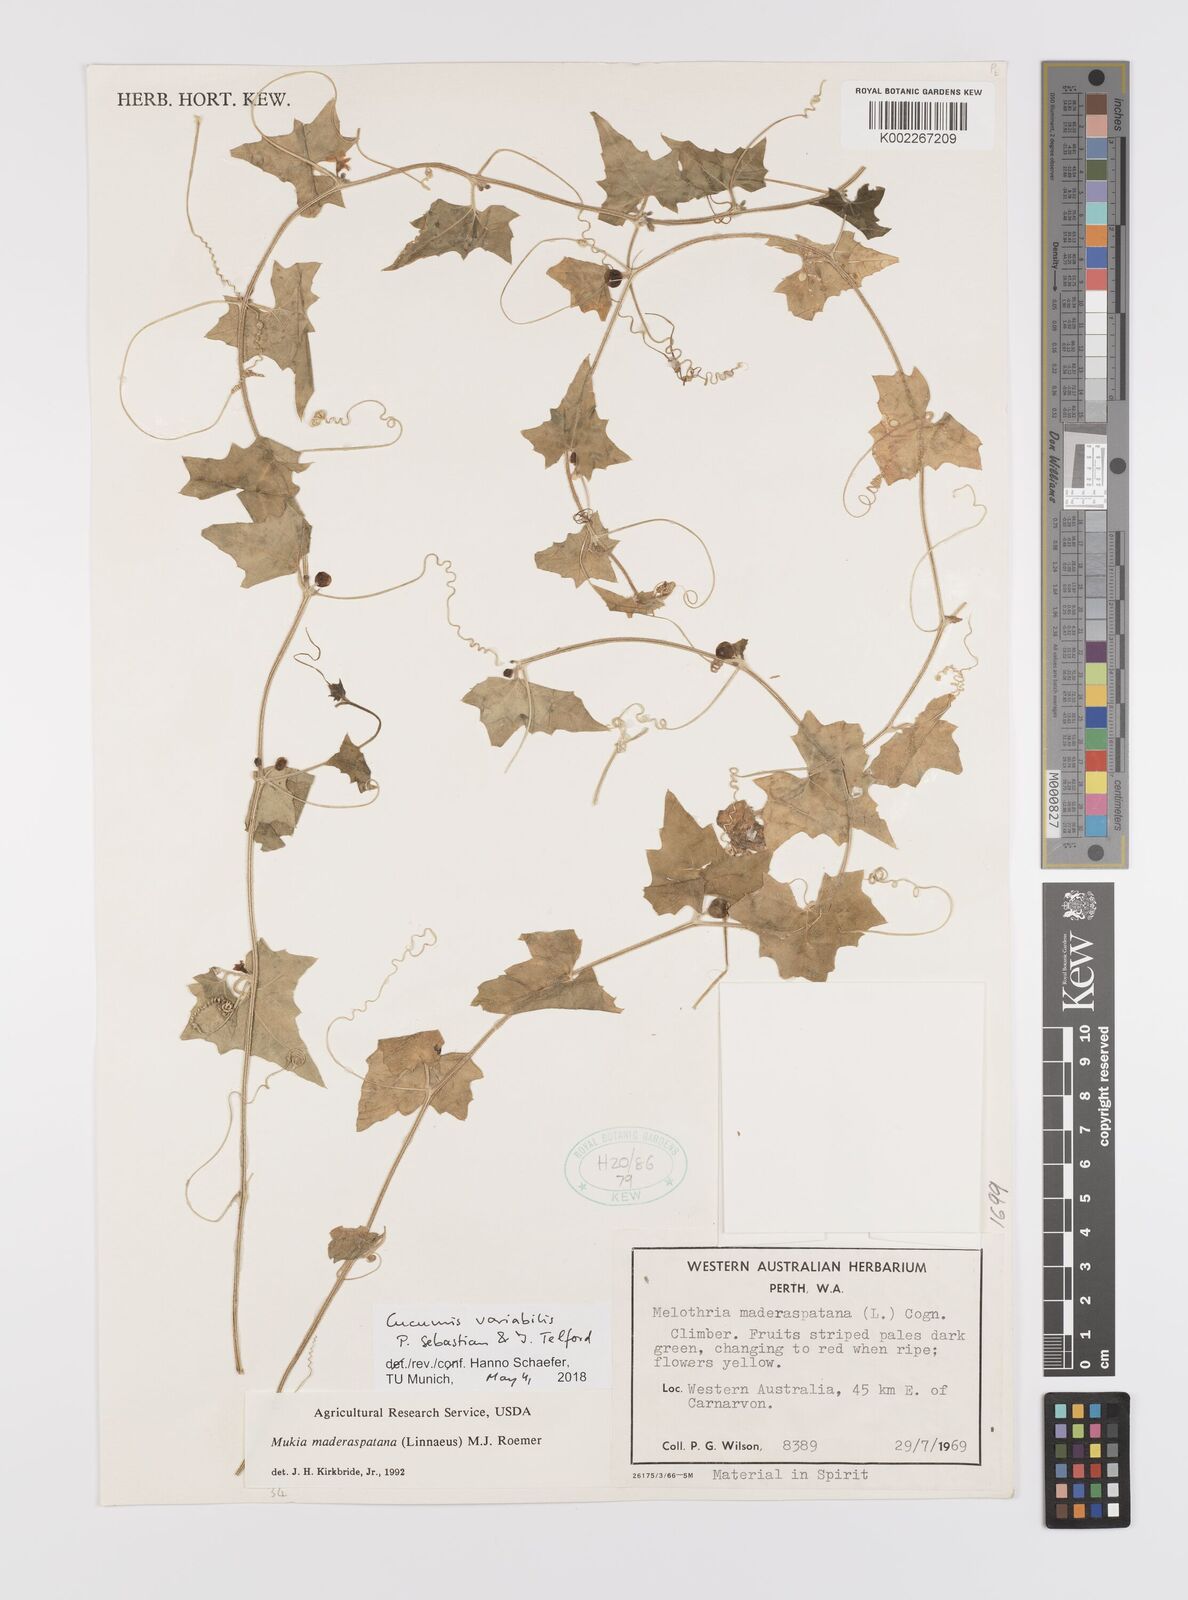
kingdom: Plantae
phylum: Tracheophyta
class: Magnoliopsida
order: Cucurbitales
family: Cucurbitaceae
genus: Cucumis
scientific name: Cucumis variabilis
